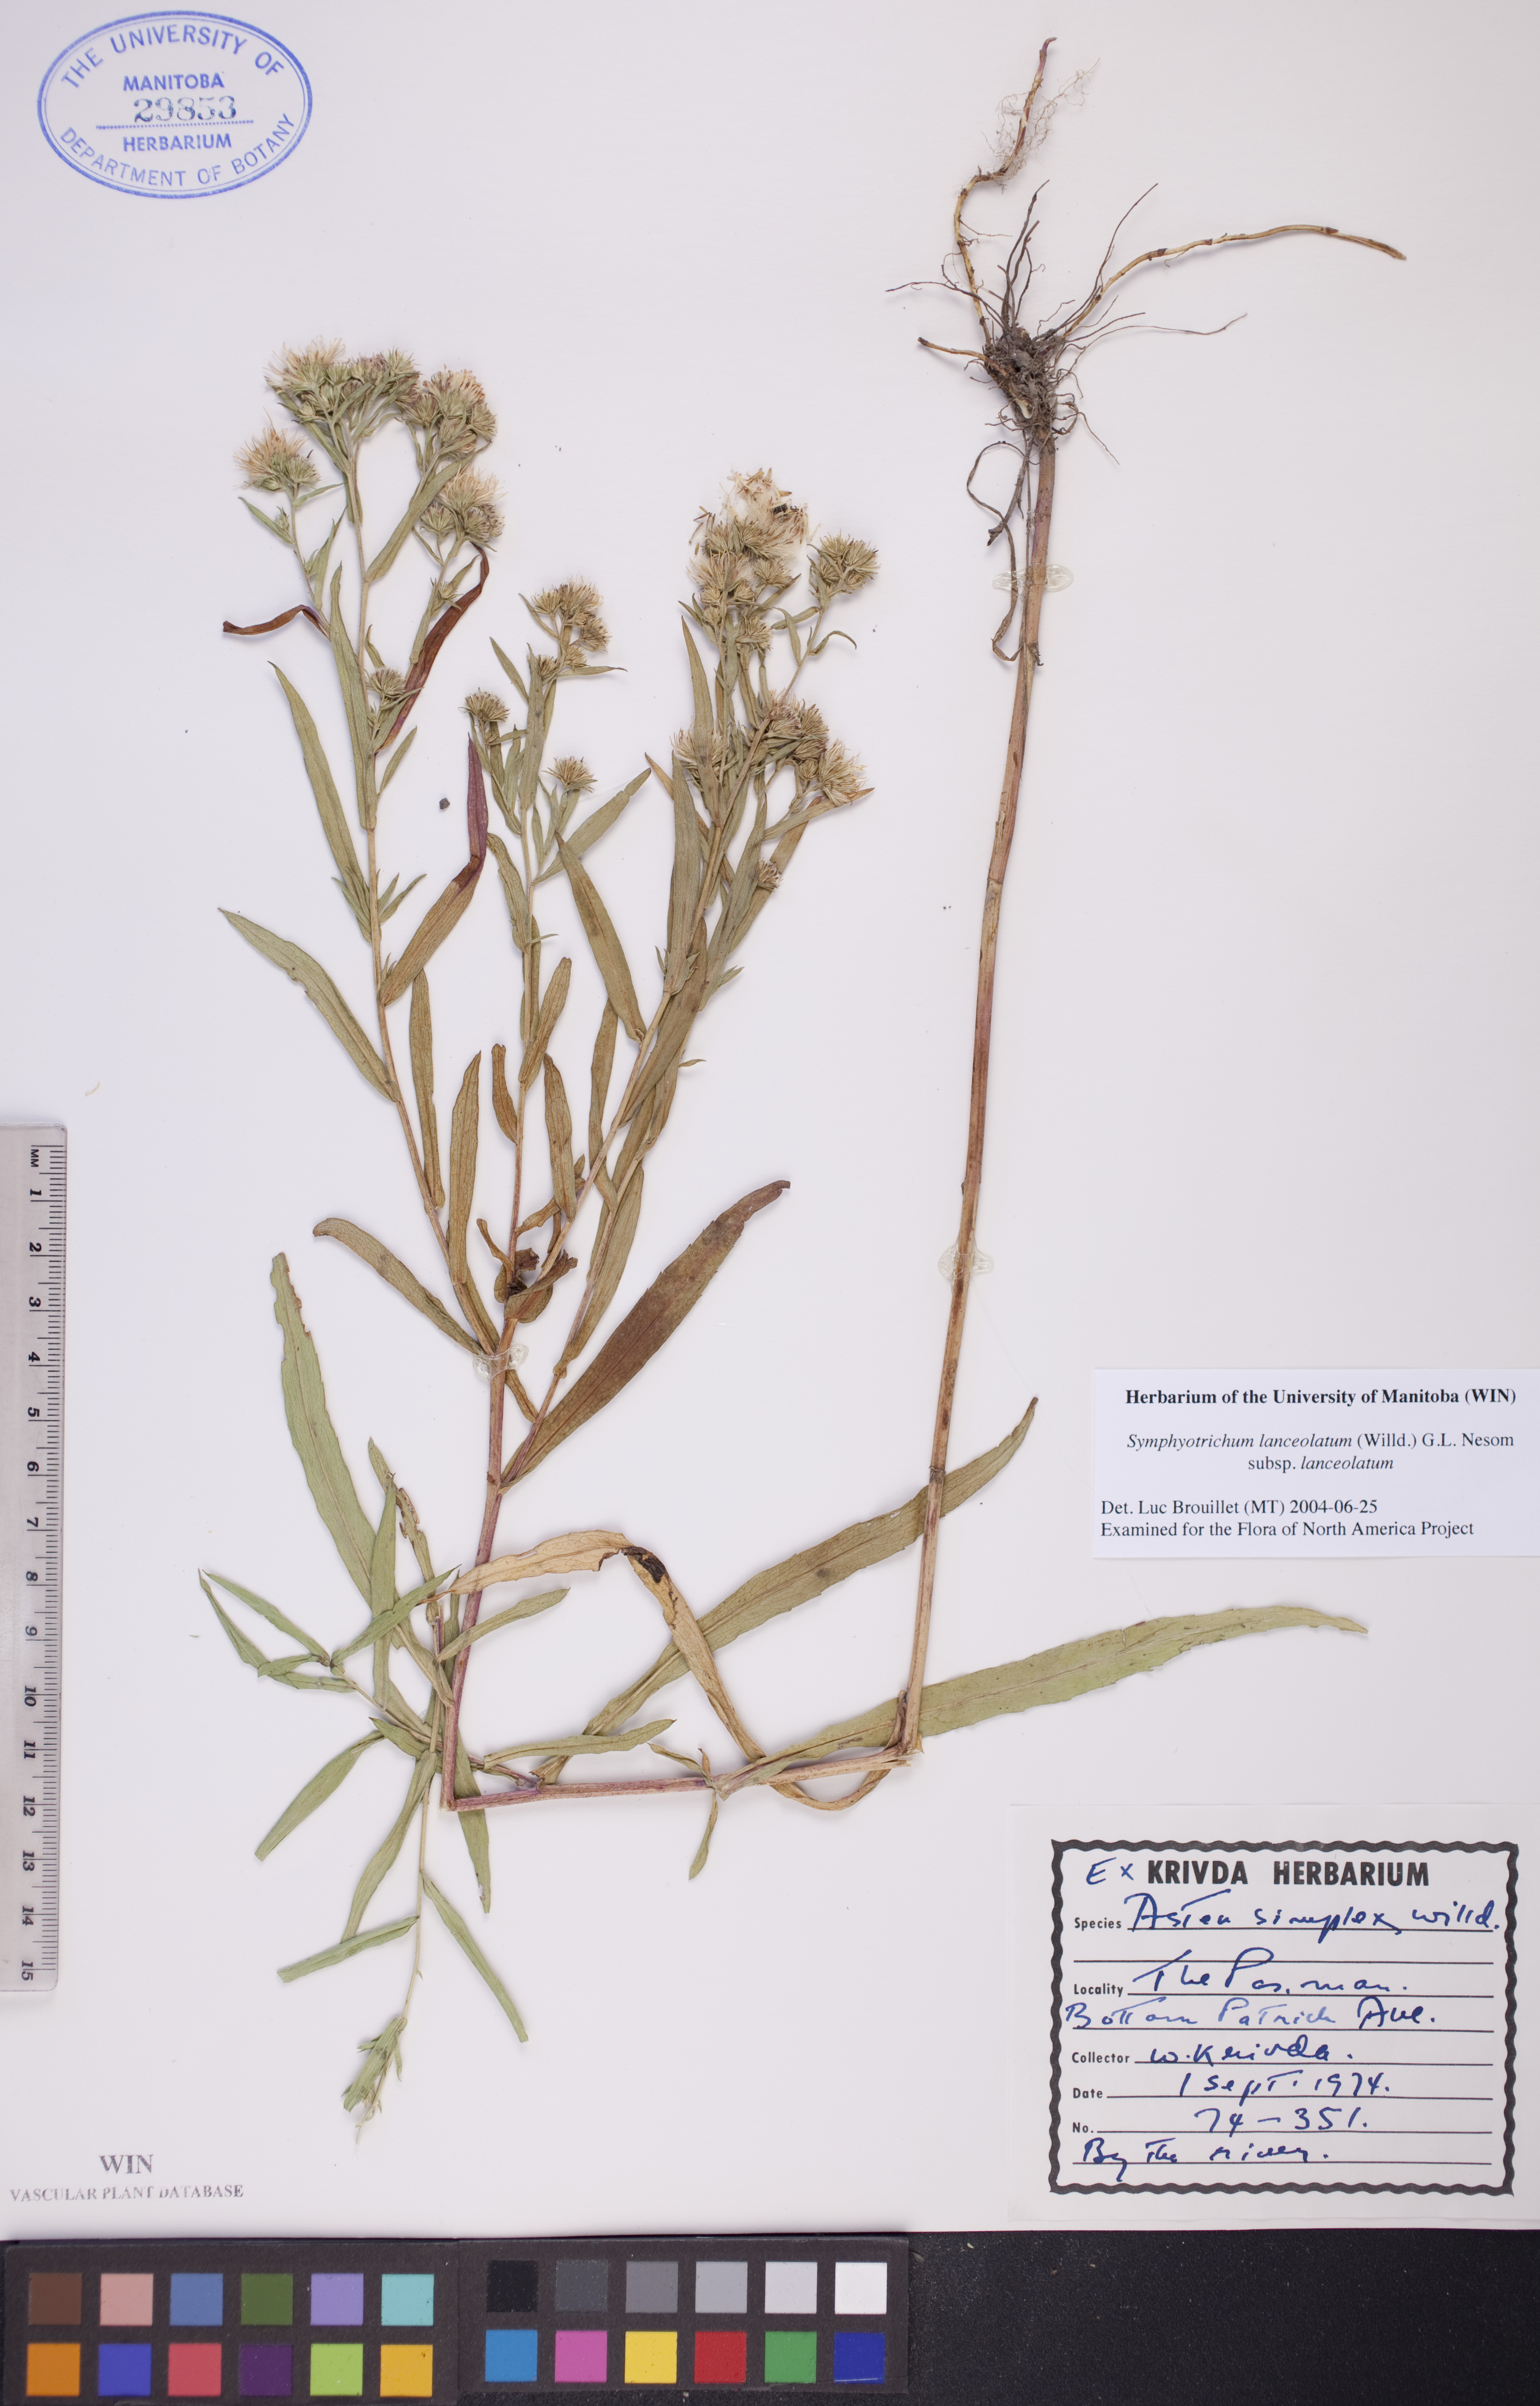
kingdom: Plantae
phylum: Tracheophyta
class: Magnoliopsida
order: Asterales
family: Asteraceae
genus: Symphyotrichum
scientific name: Symphyotrichum lanceolatum
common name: Panicled aster
